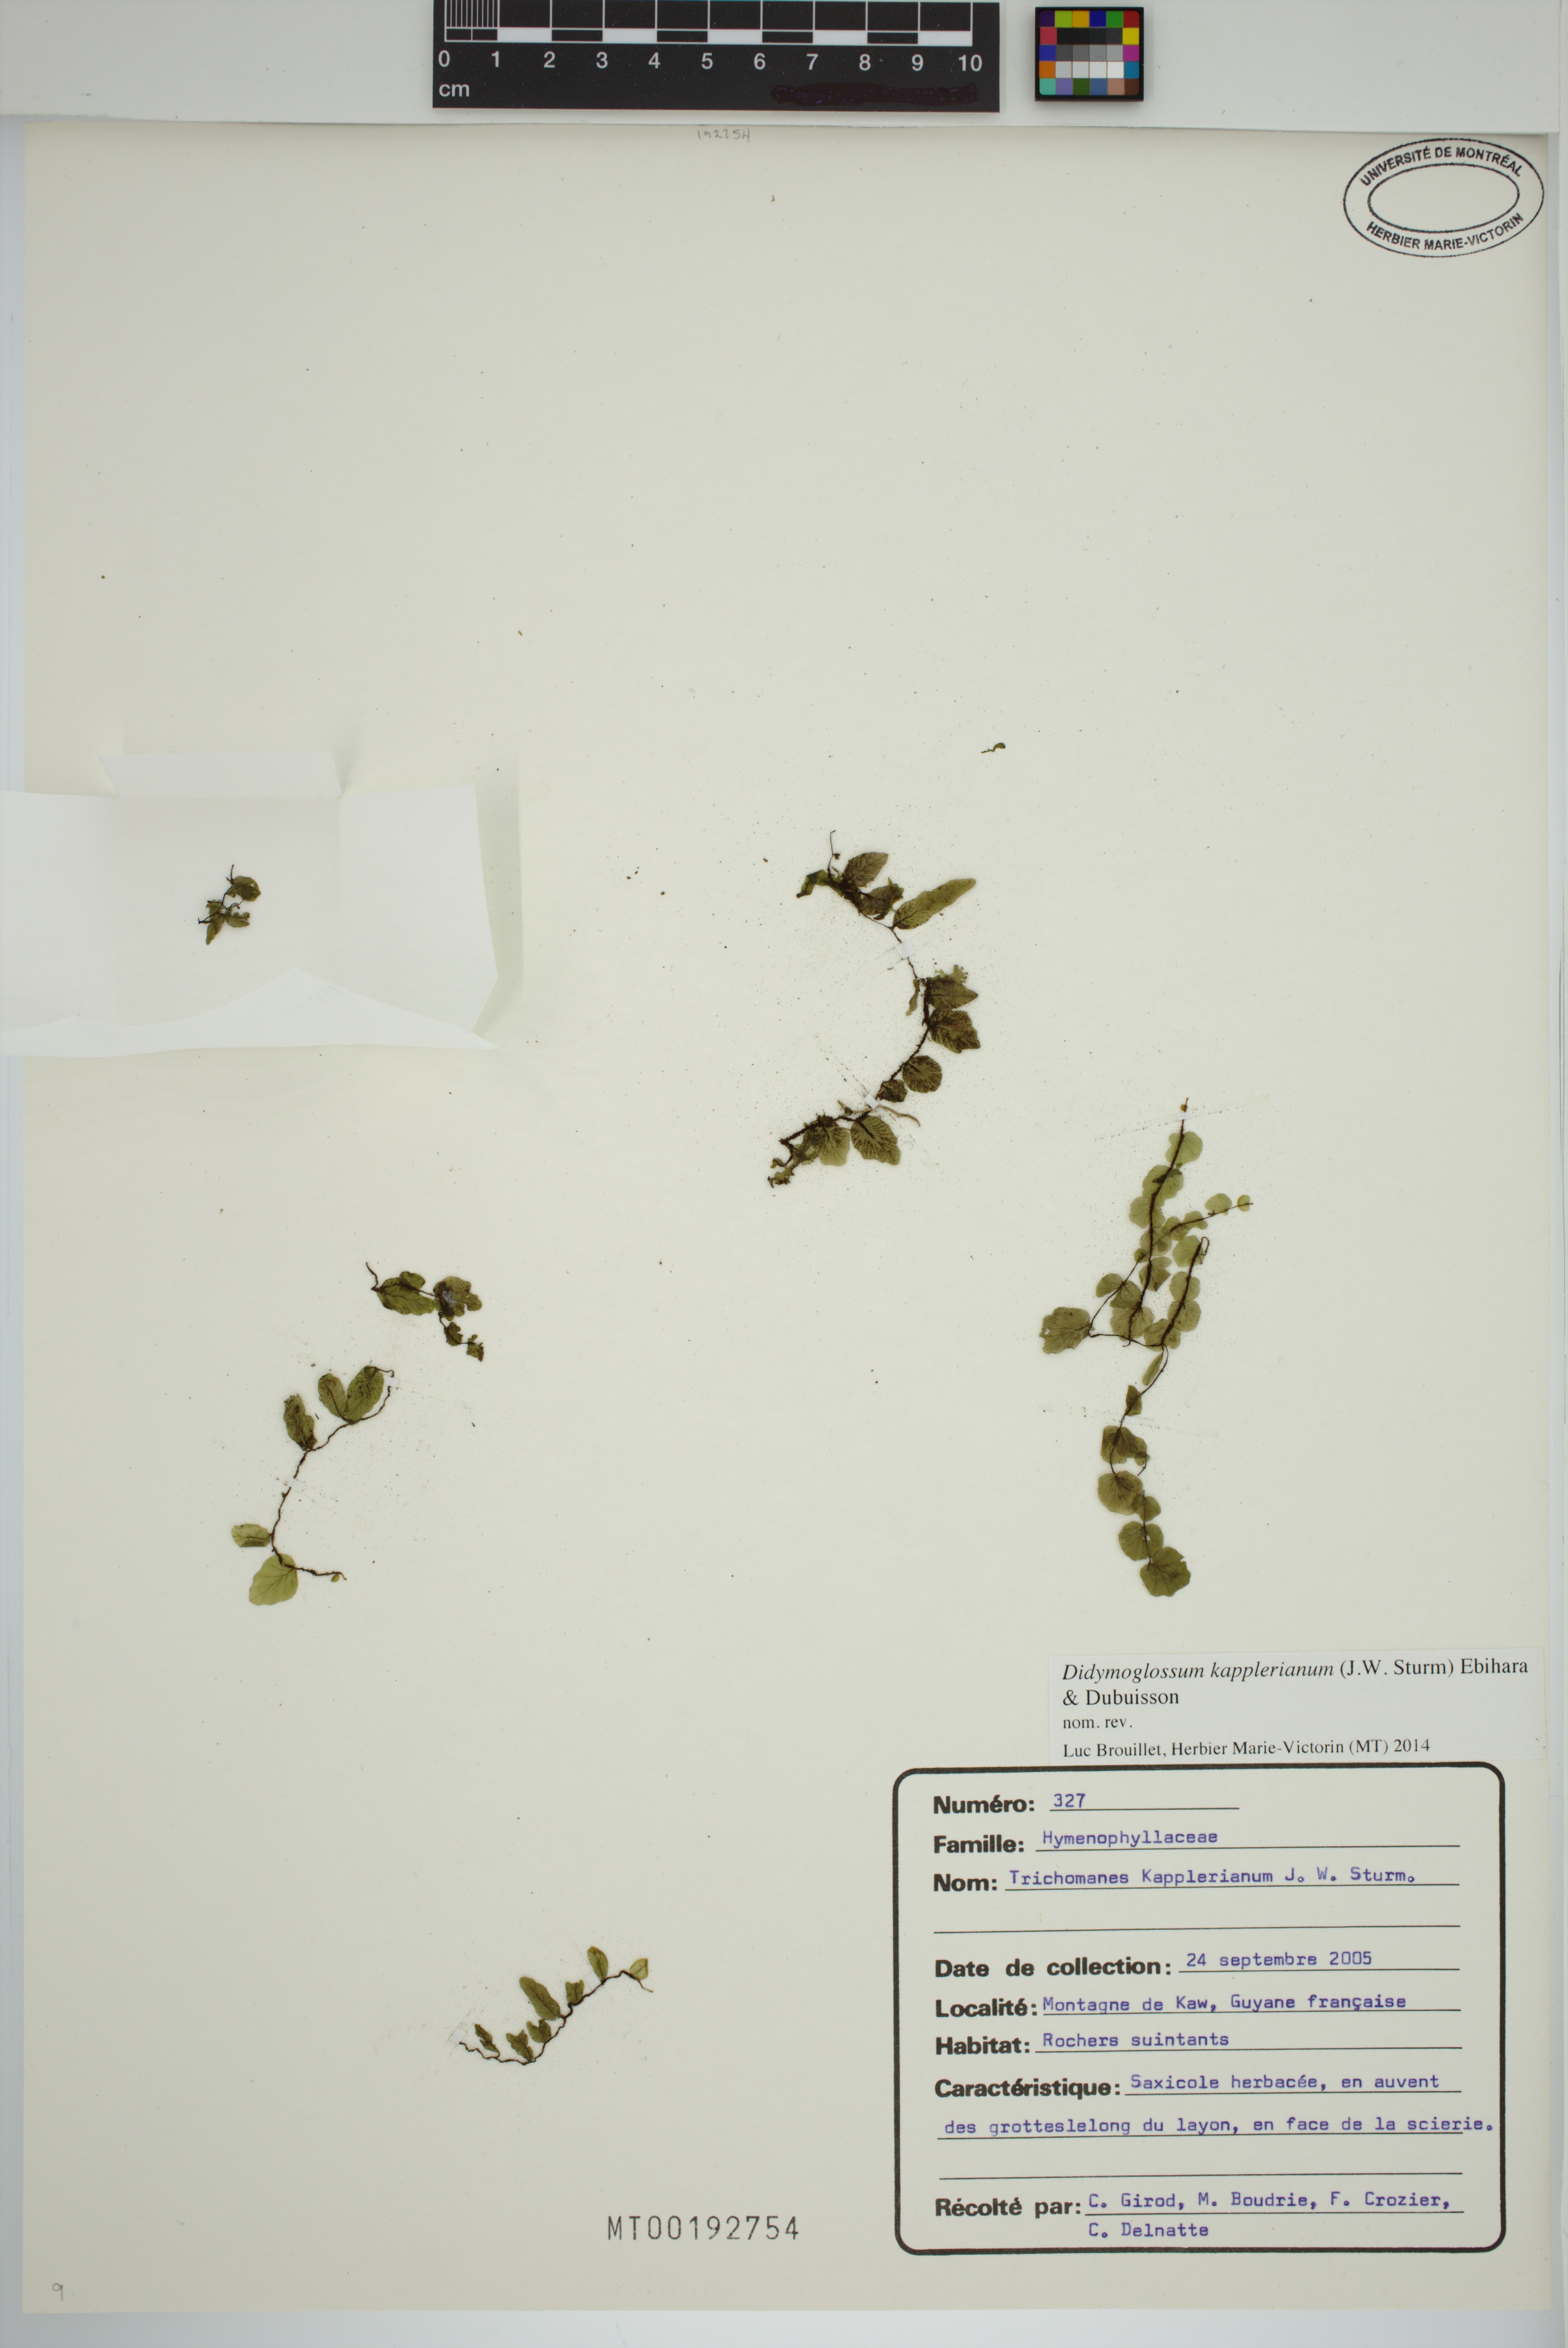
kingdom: Plantae
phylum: Tracheophyta
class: Polypodiopsida
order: Hymenophyllales
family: Hymenophyllaceae
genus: Didymoglossum
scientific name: Didymoglossum kapplerianum
